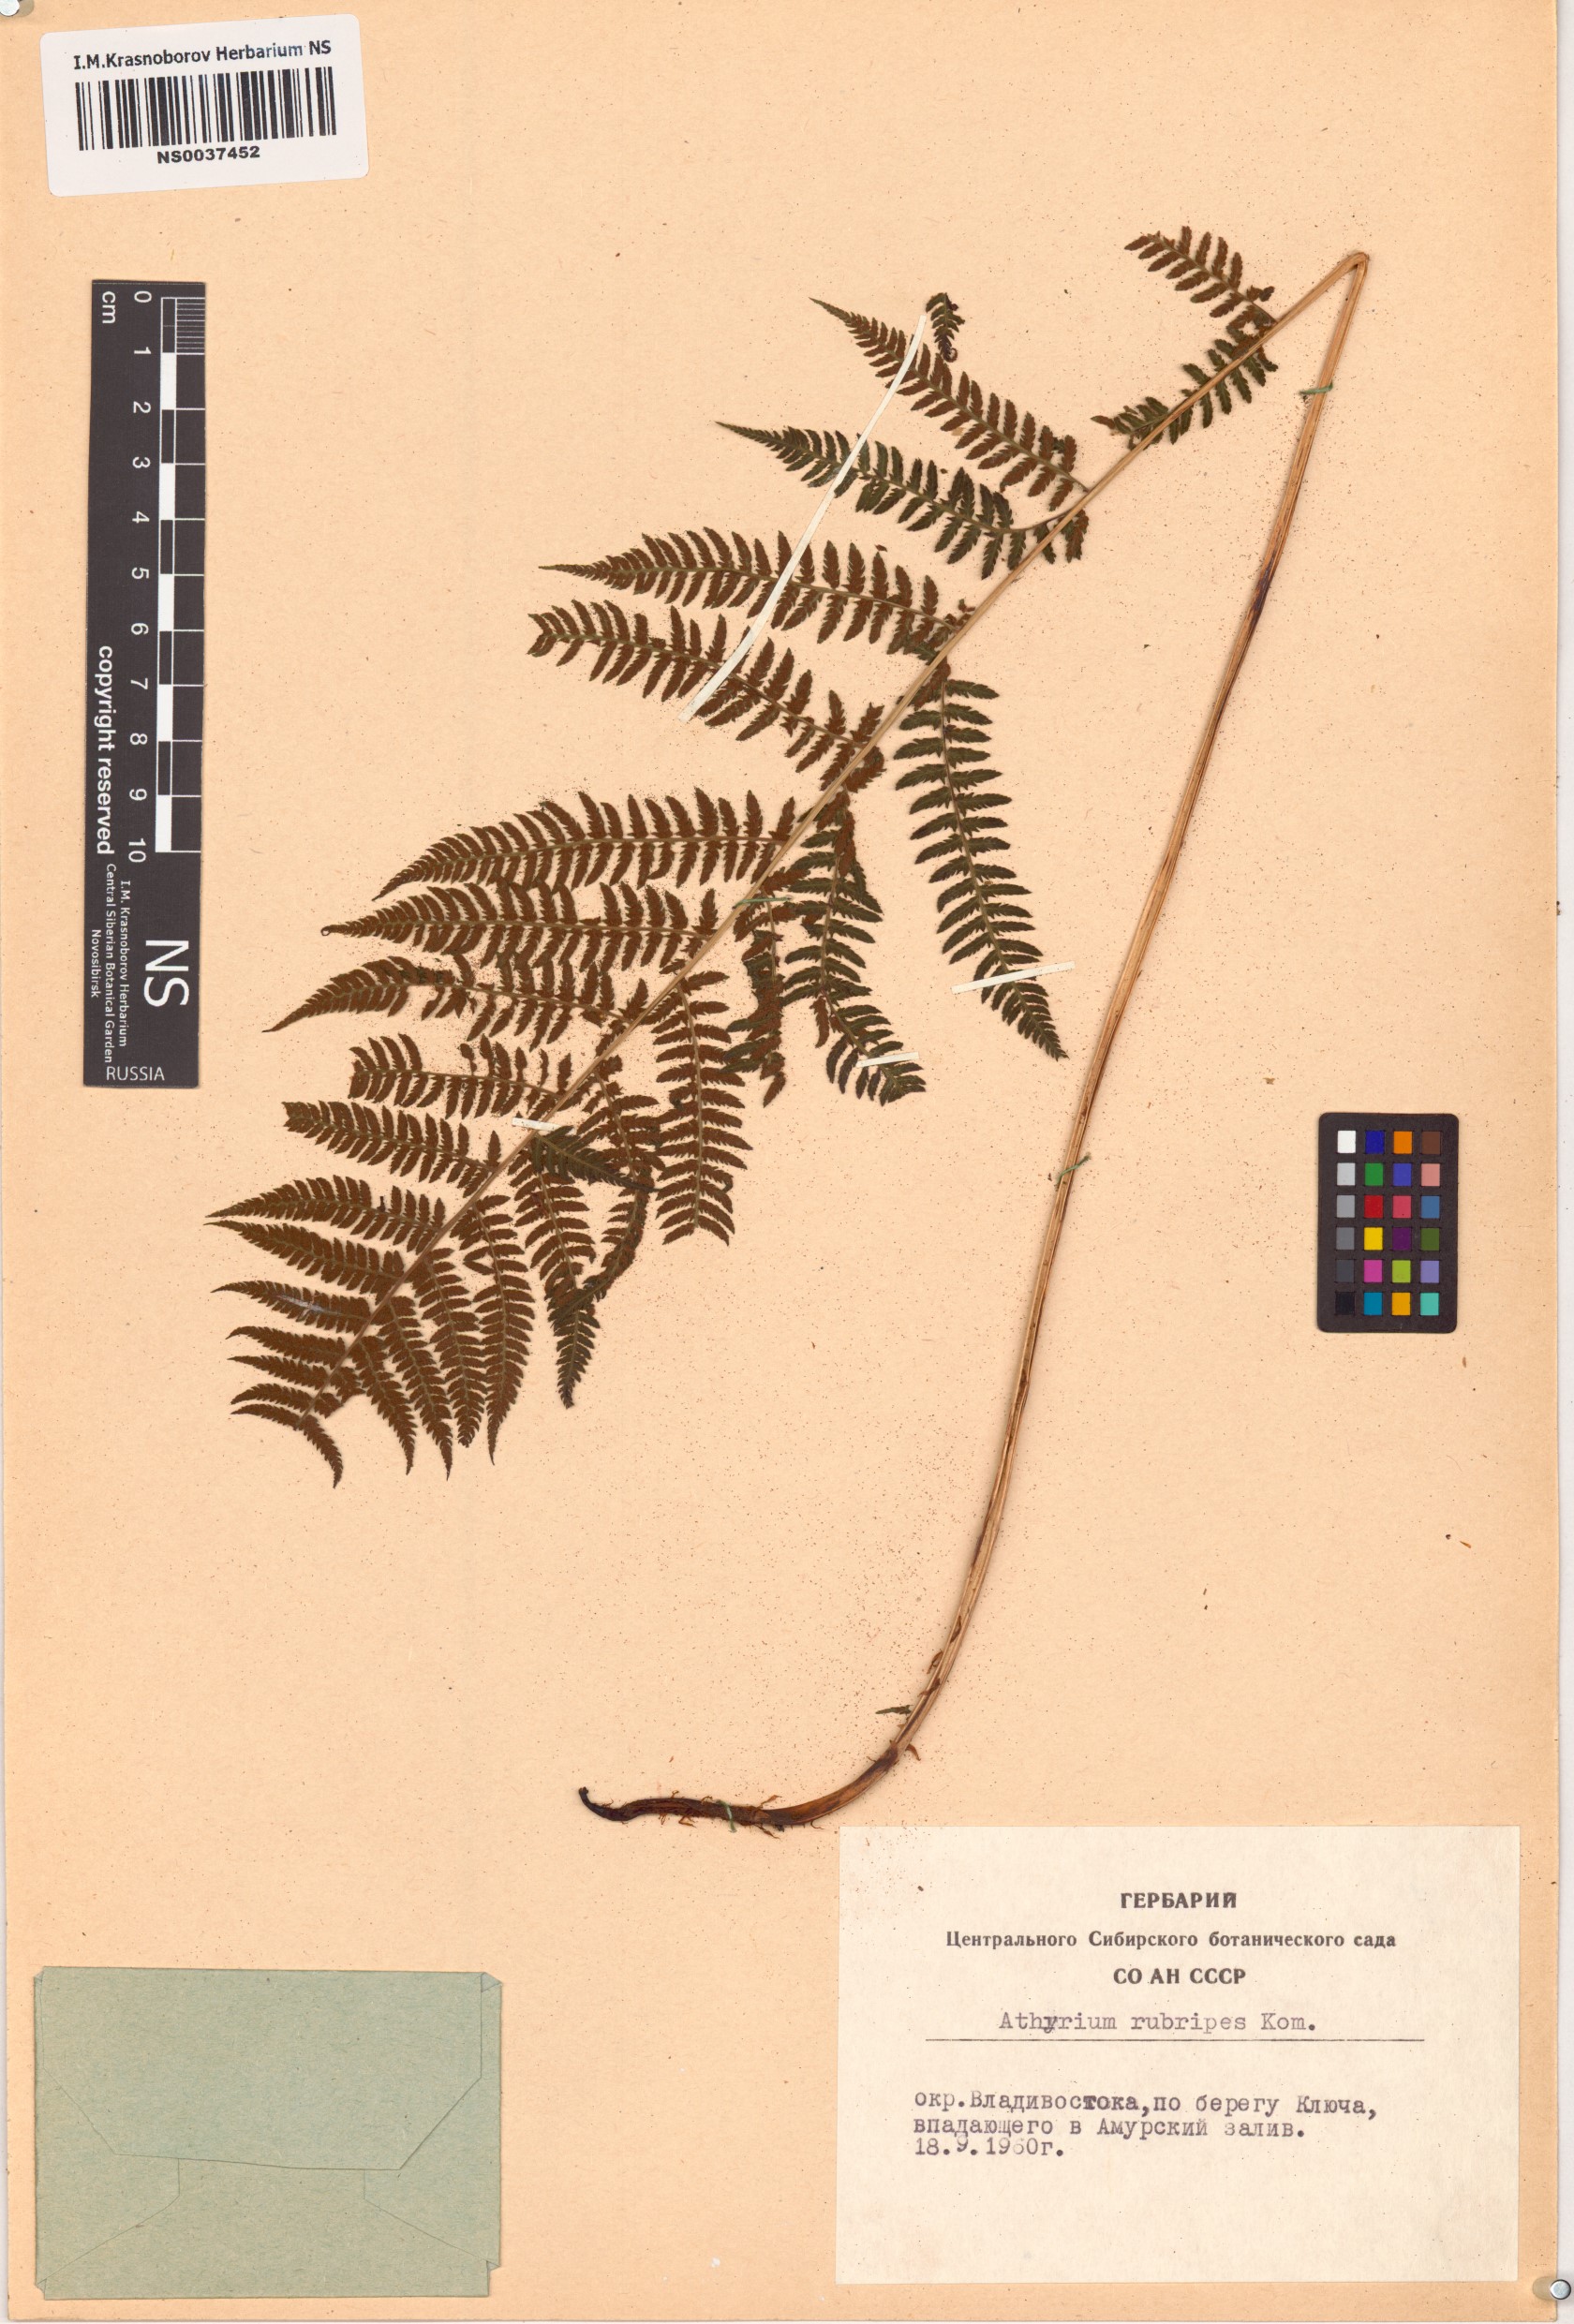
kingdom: Plantae
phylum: Tracheophyta
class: Polypodiopsida
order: Polypodiales
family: Athyriaceae
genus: Athyrium
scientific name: Athyrium rubripes
